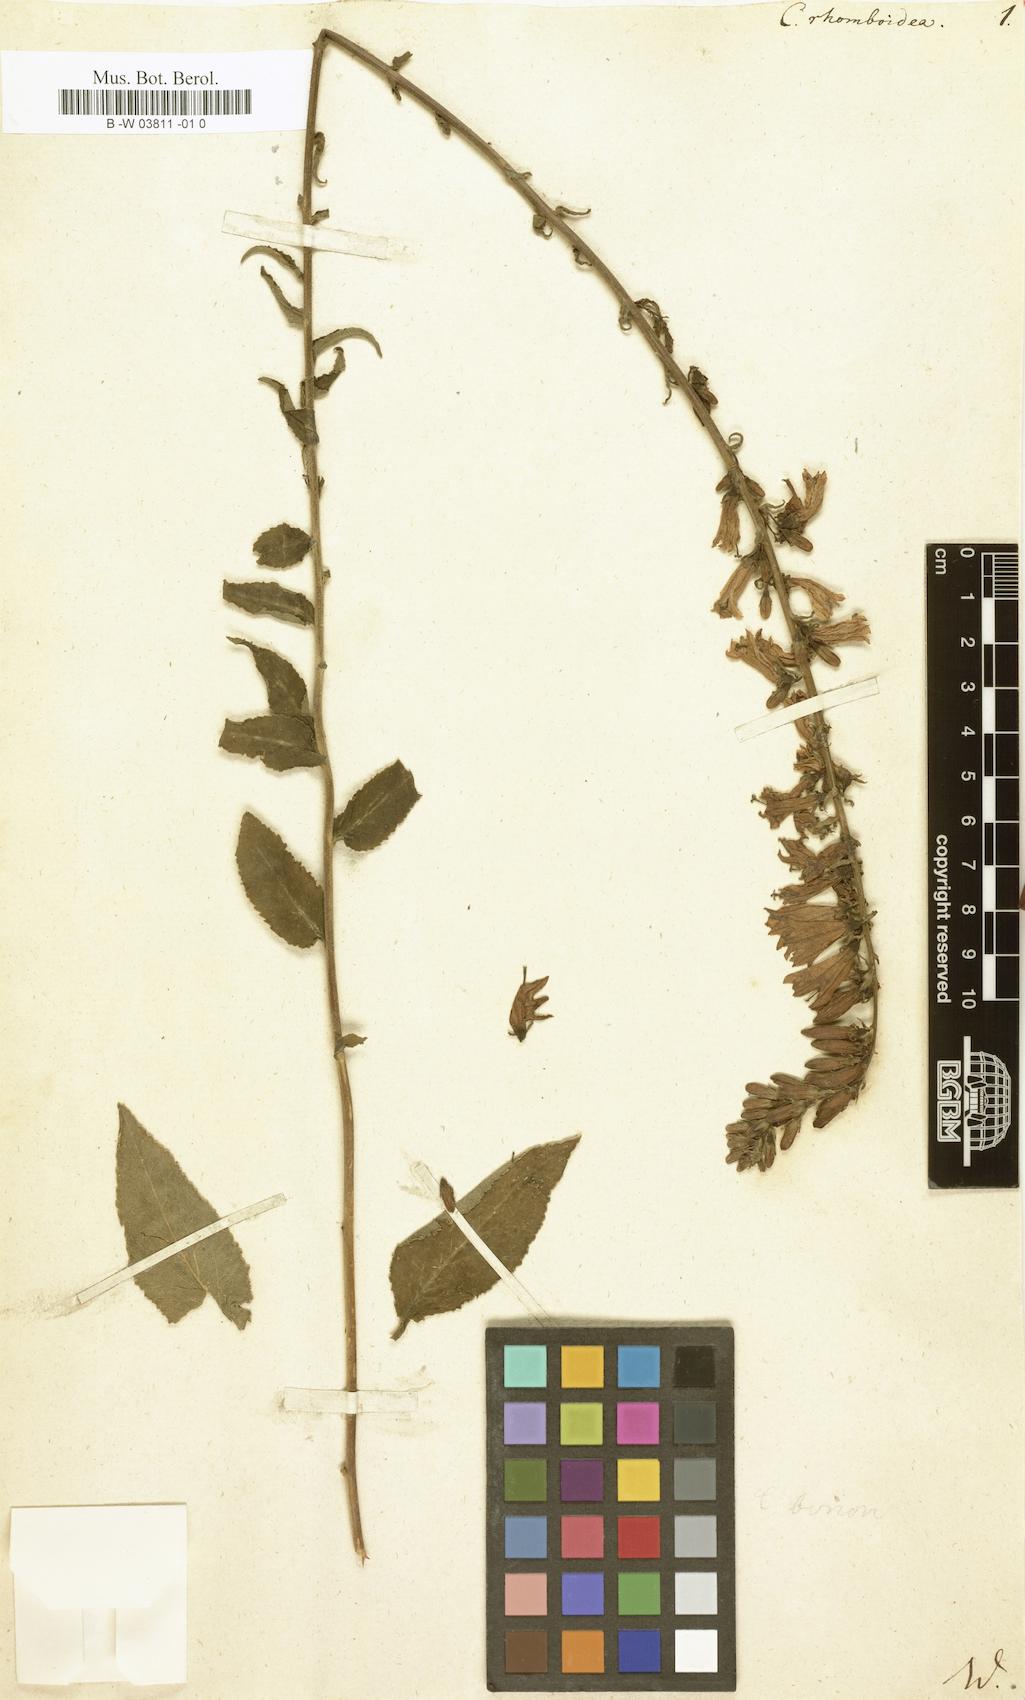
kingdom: Plantae
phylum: Tracheophyta
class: Magnoliopsida
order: Asterales
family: Campanulaceae
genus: Campanula
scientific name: Campanula rhomboidea
